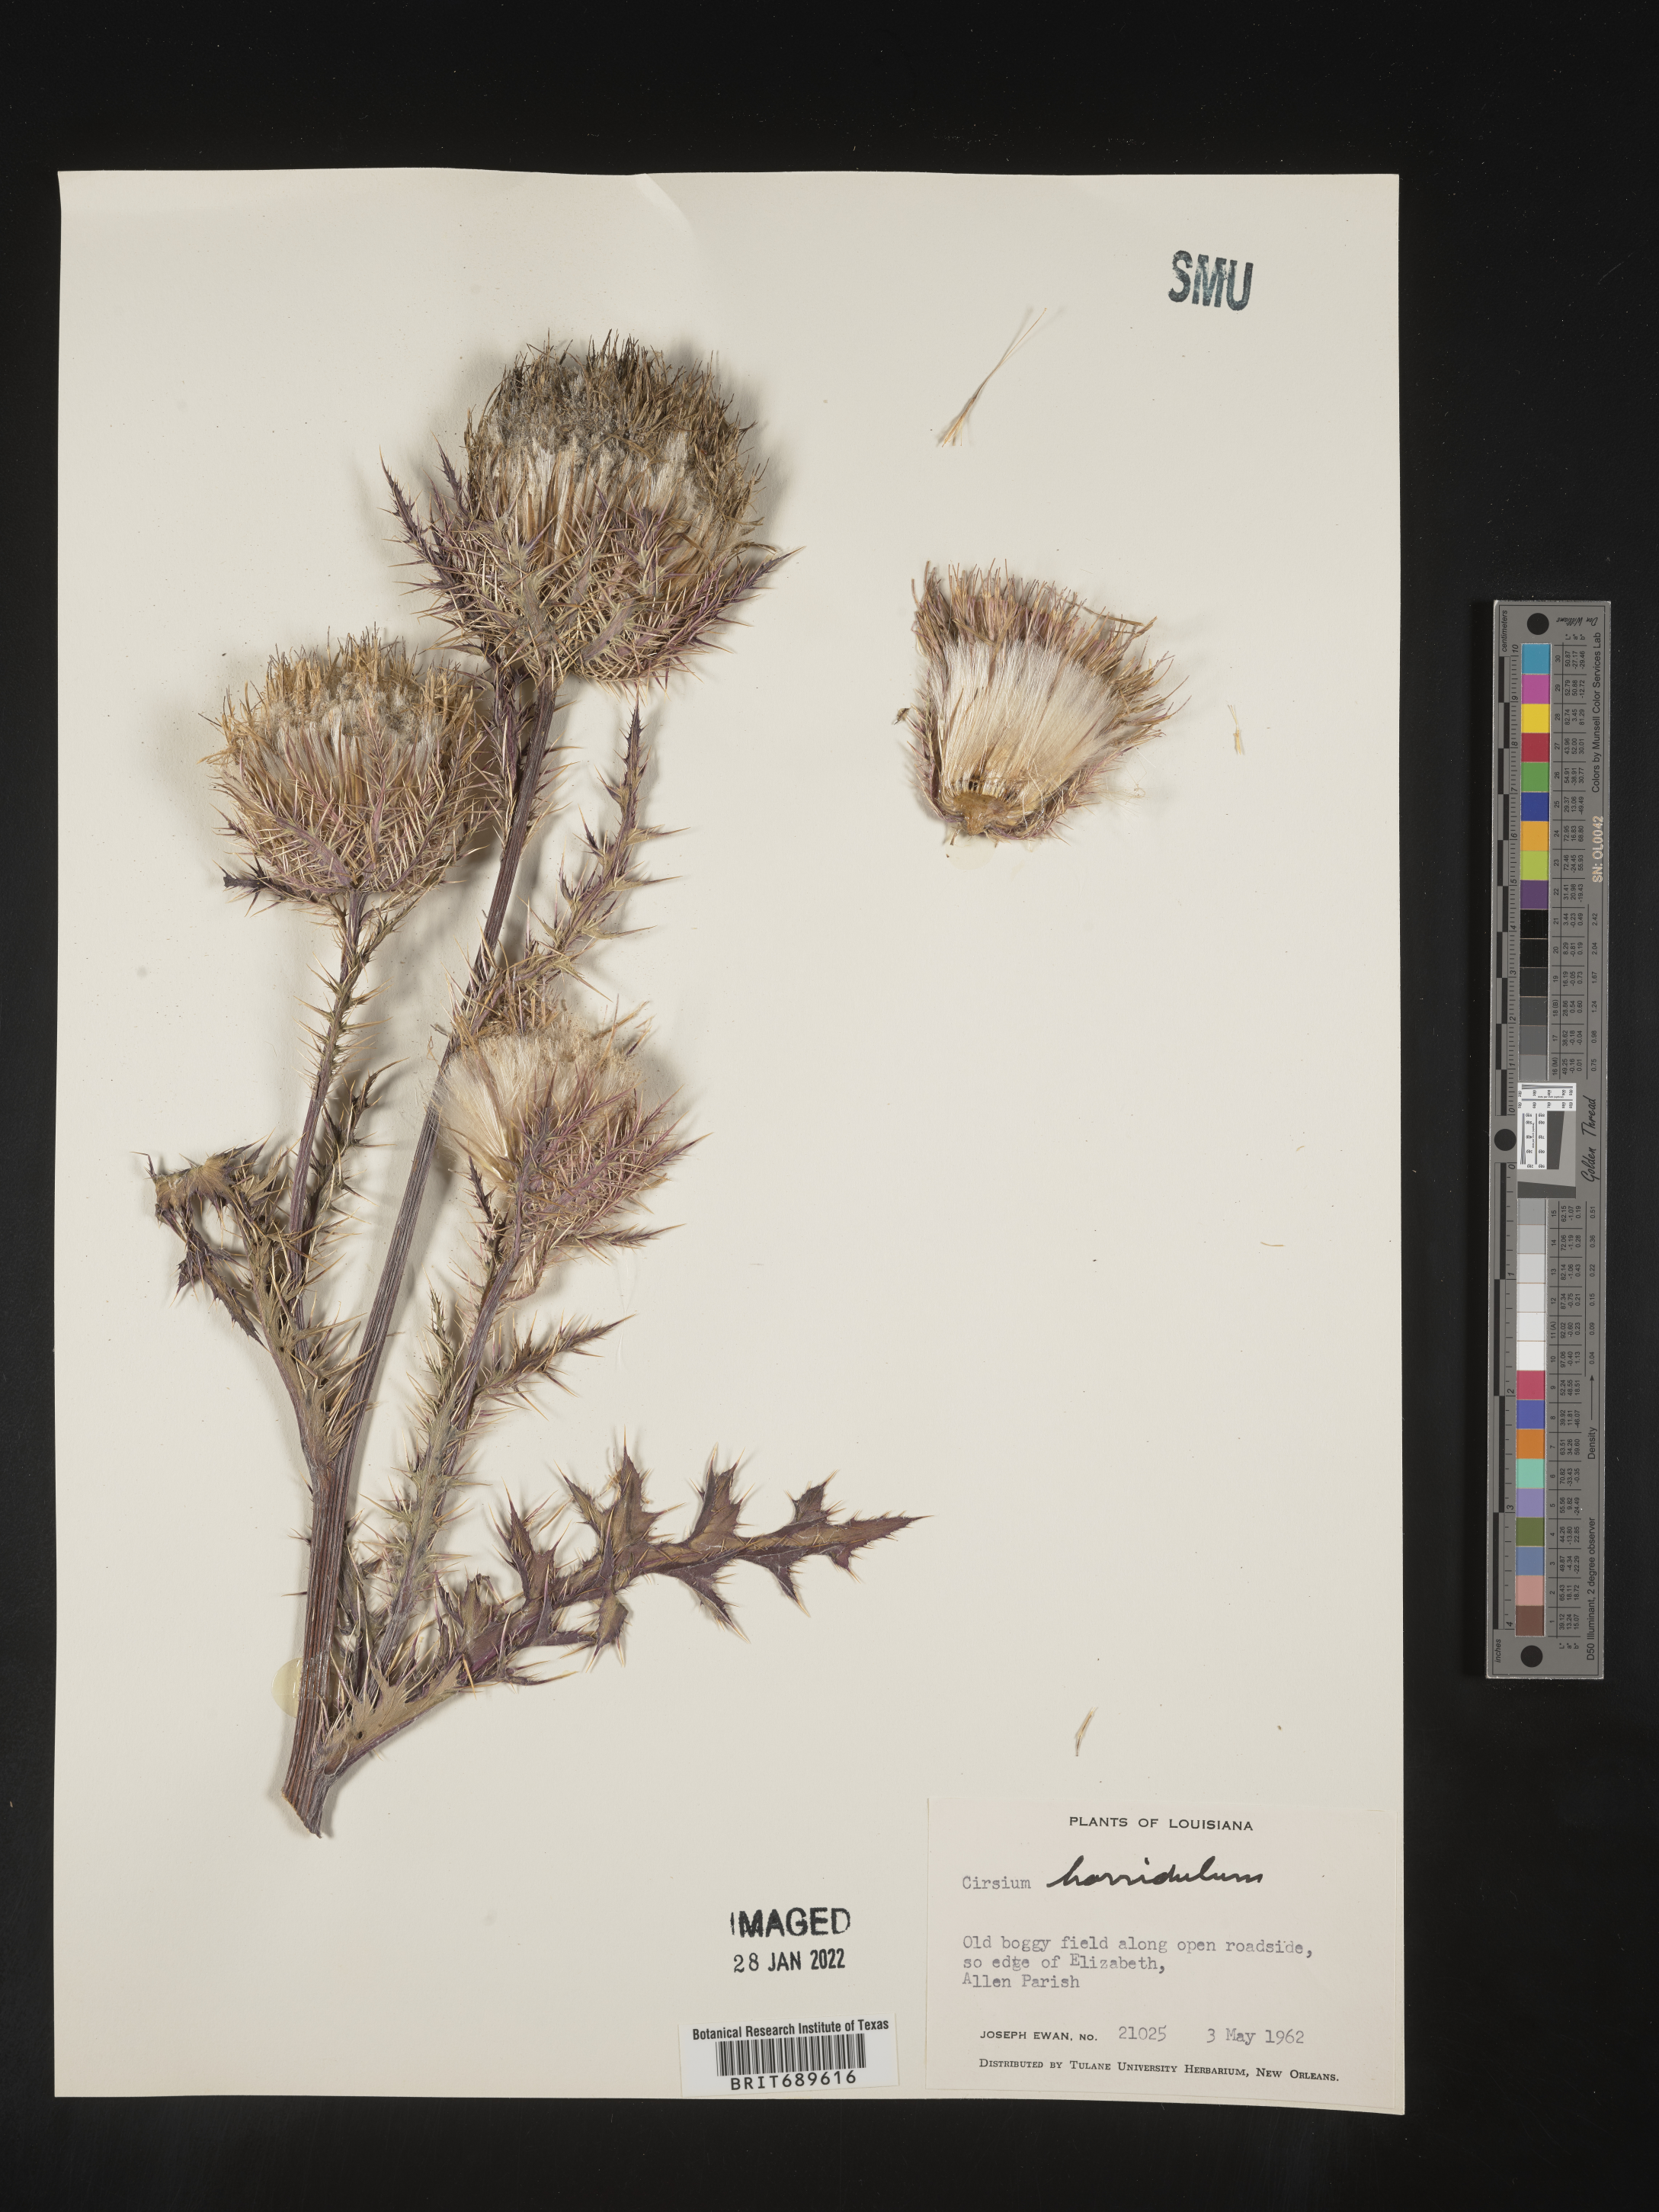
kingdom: Plantae
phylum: Tracheophyta
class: Magnoliopsida
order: Asterales
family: Asteraceae
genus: Cirsium
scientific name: Cirsium horridulum
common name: Bristly thistle
